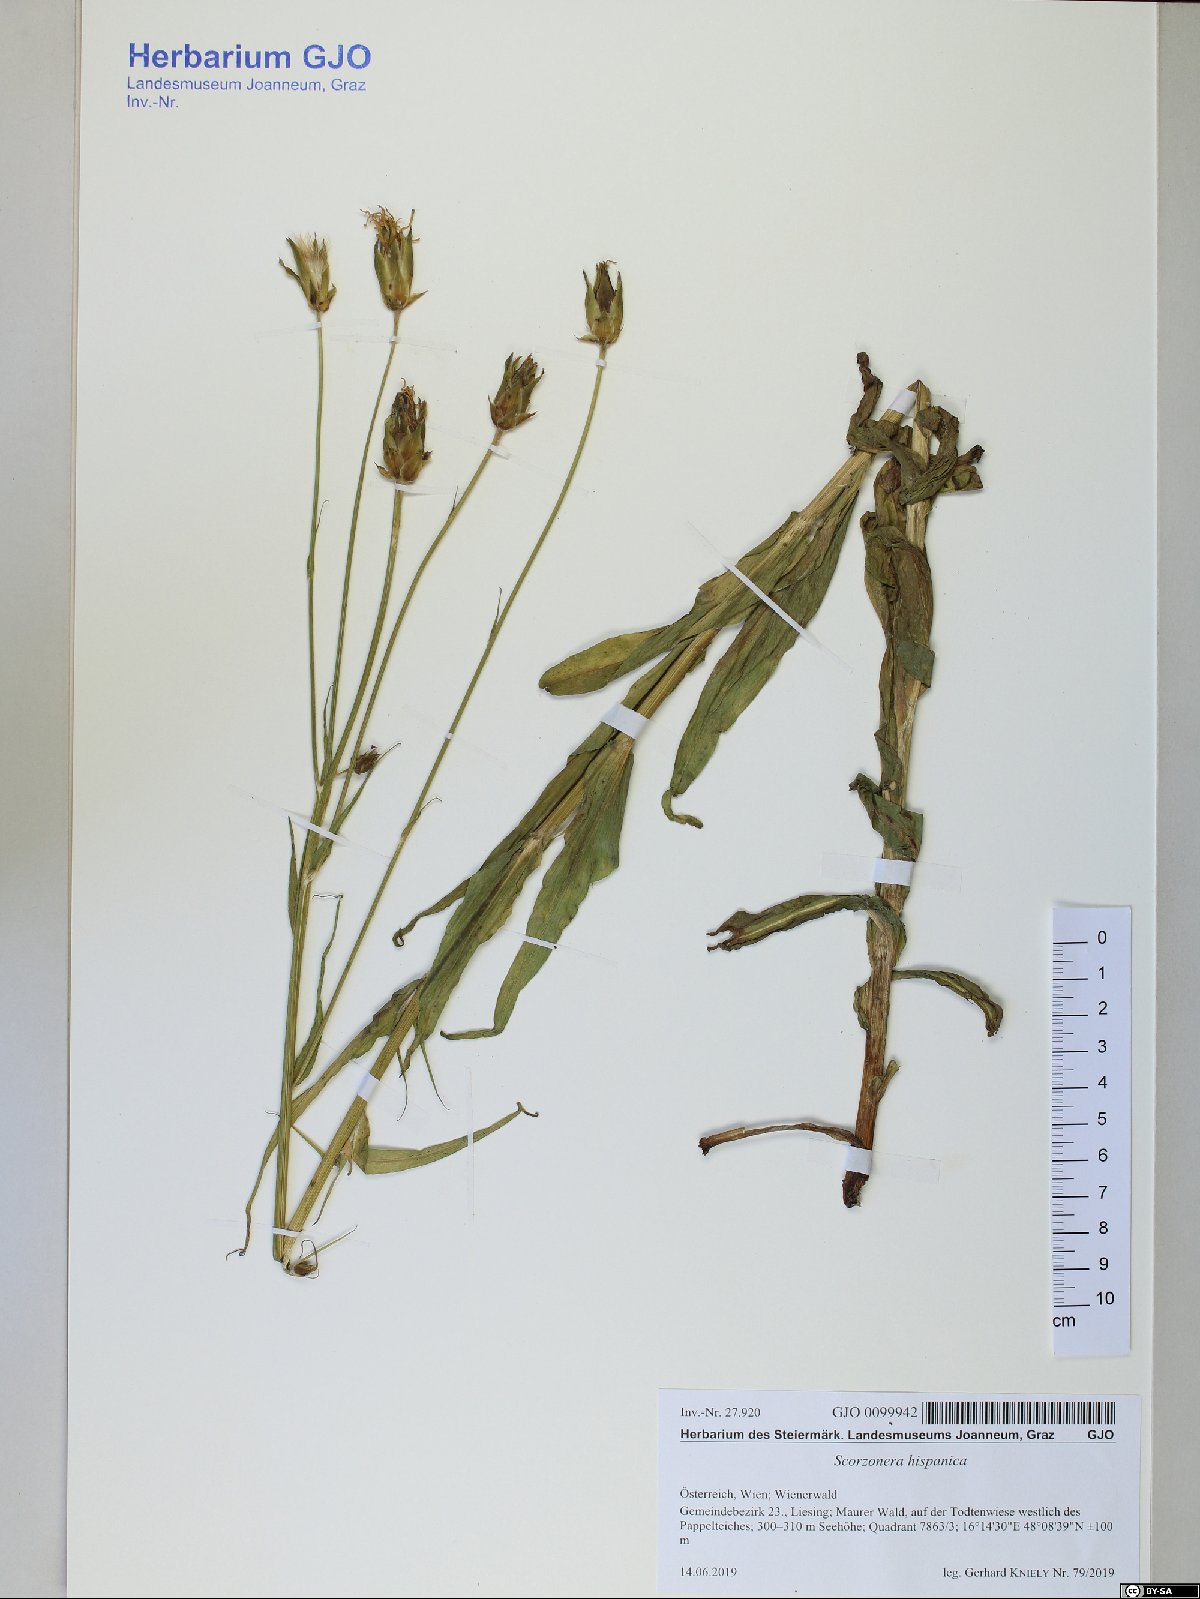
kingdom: Plantae
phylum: Tracheophyta
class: Magnoliopsida
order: Asterales
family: Asteraceae
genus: Pseudopodospermum
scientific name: Pseudopodospermum hispanicum
